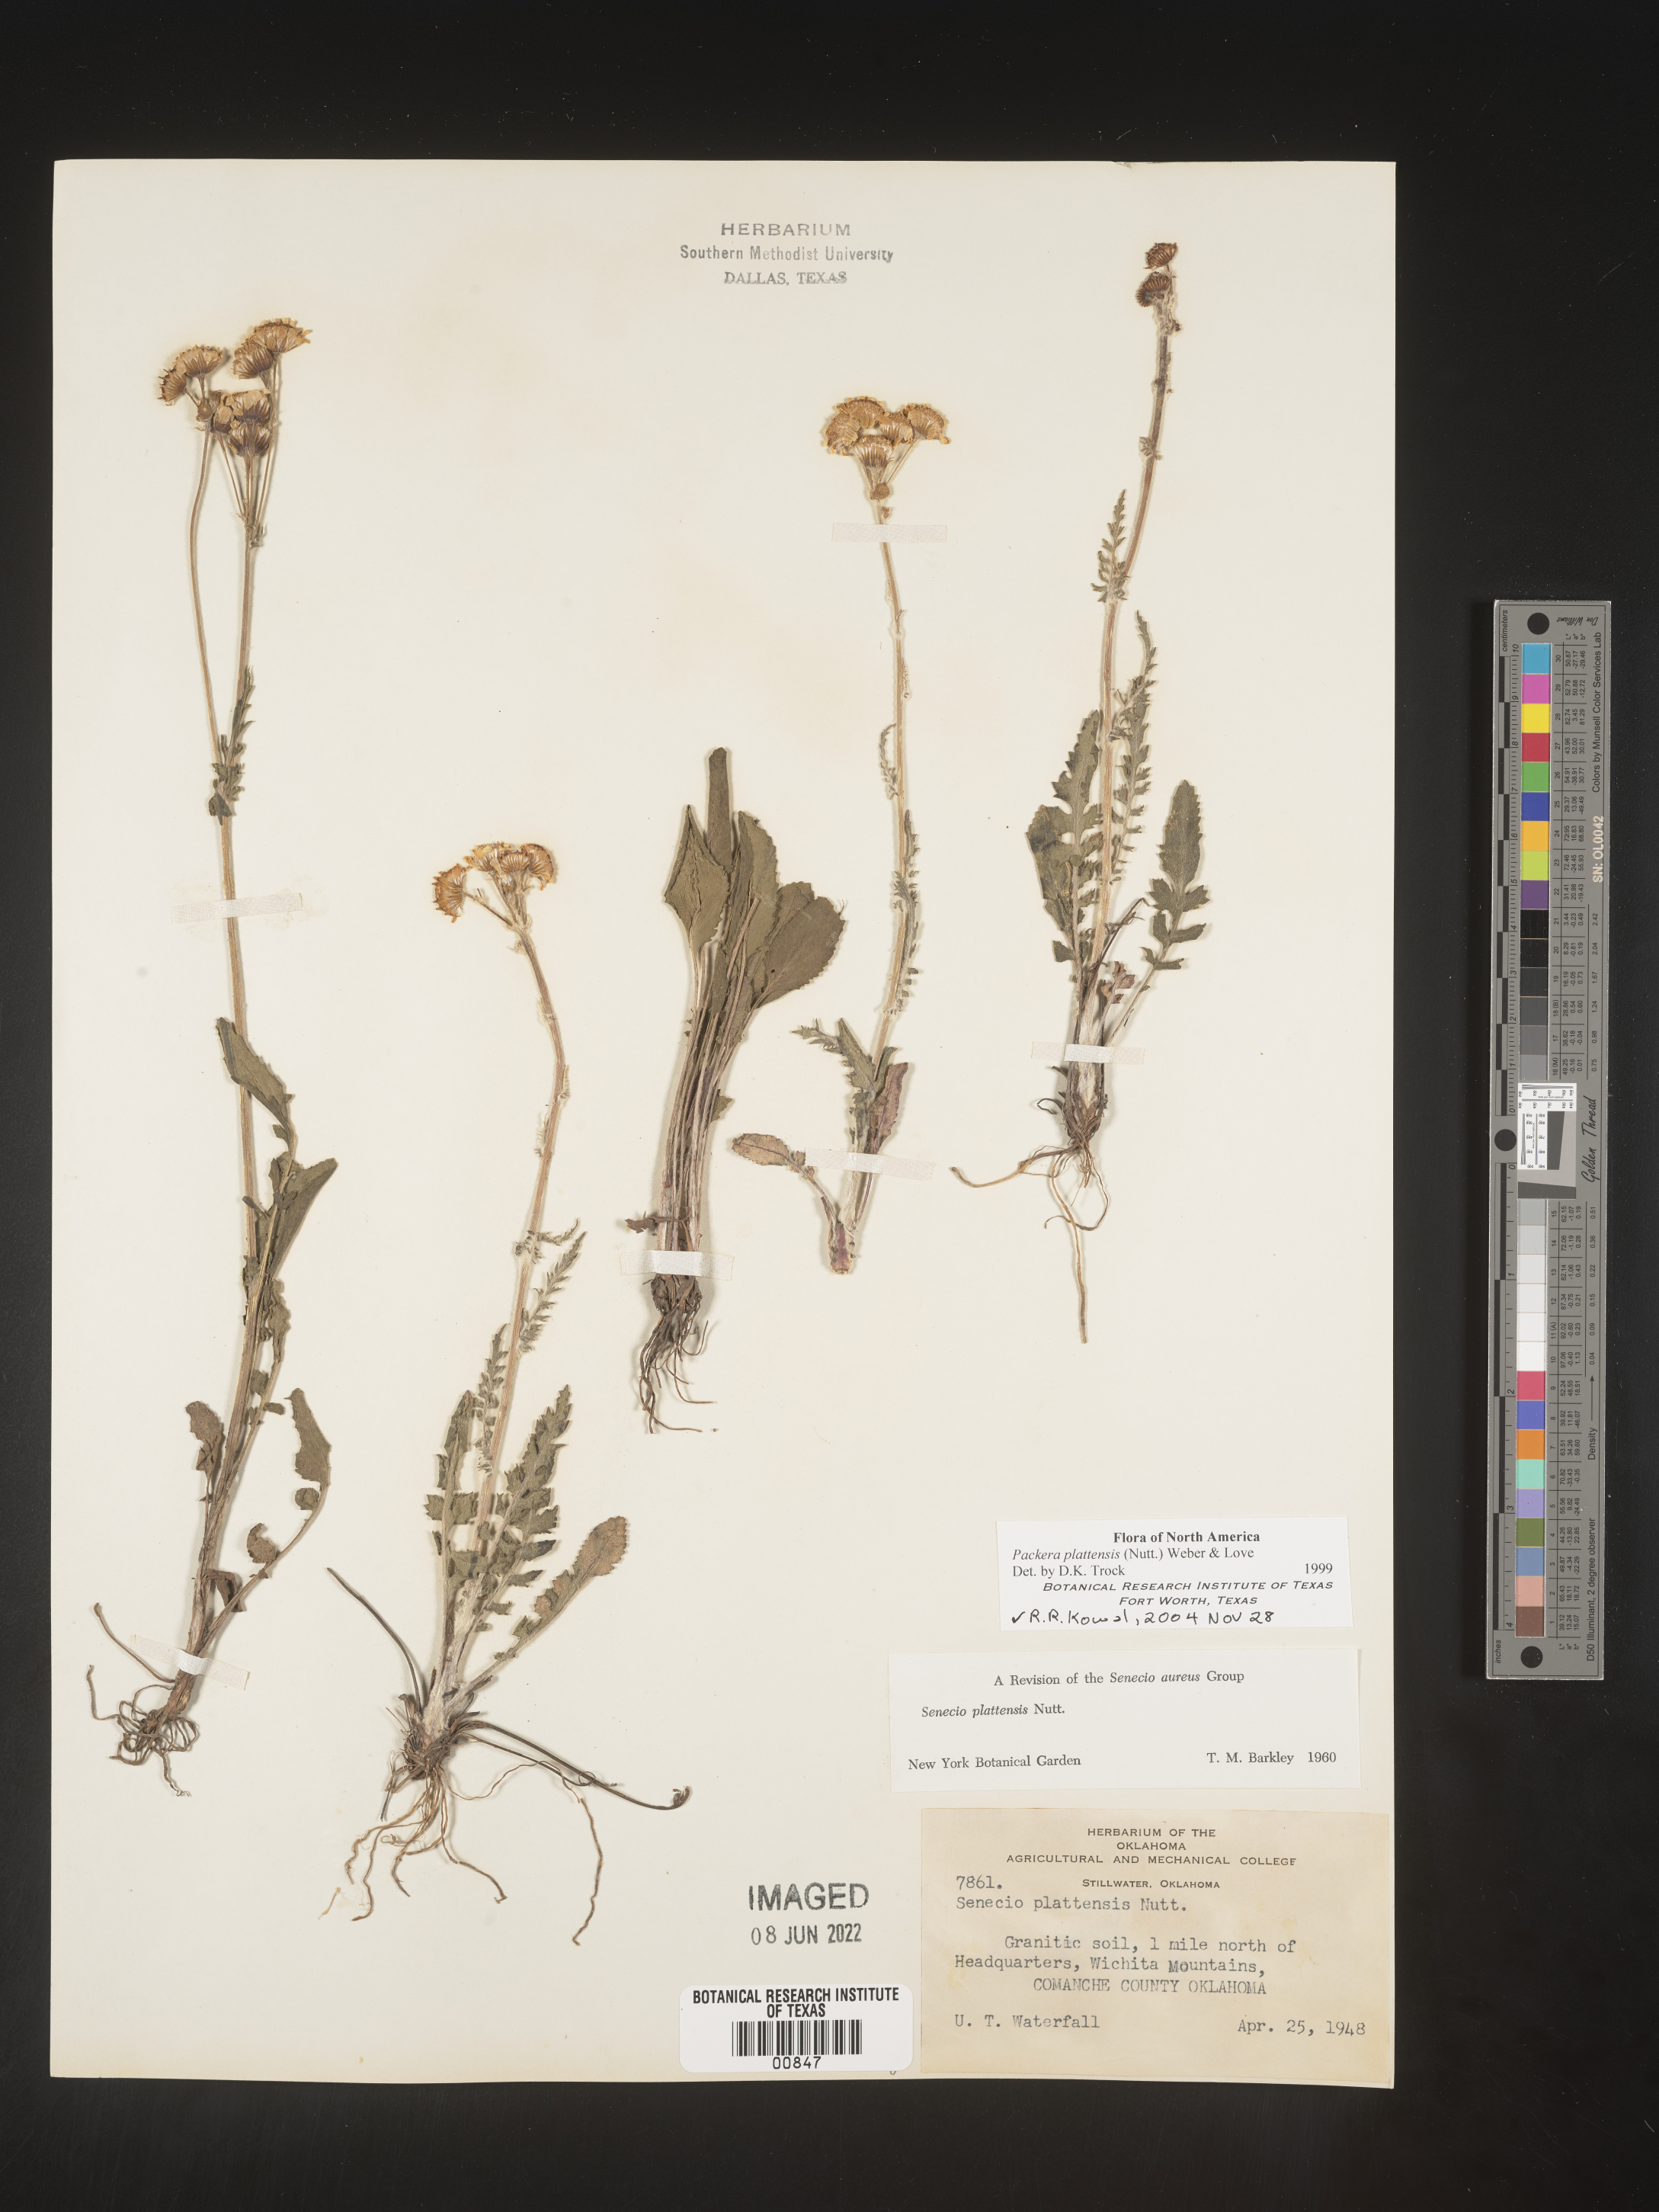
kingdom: Plantae
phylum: Tracheophyta
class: Magnoliopsida
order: Asterales
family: Asteraceae
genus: Packera
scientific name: Packera plattensis
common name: Prairie groundsel
